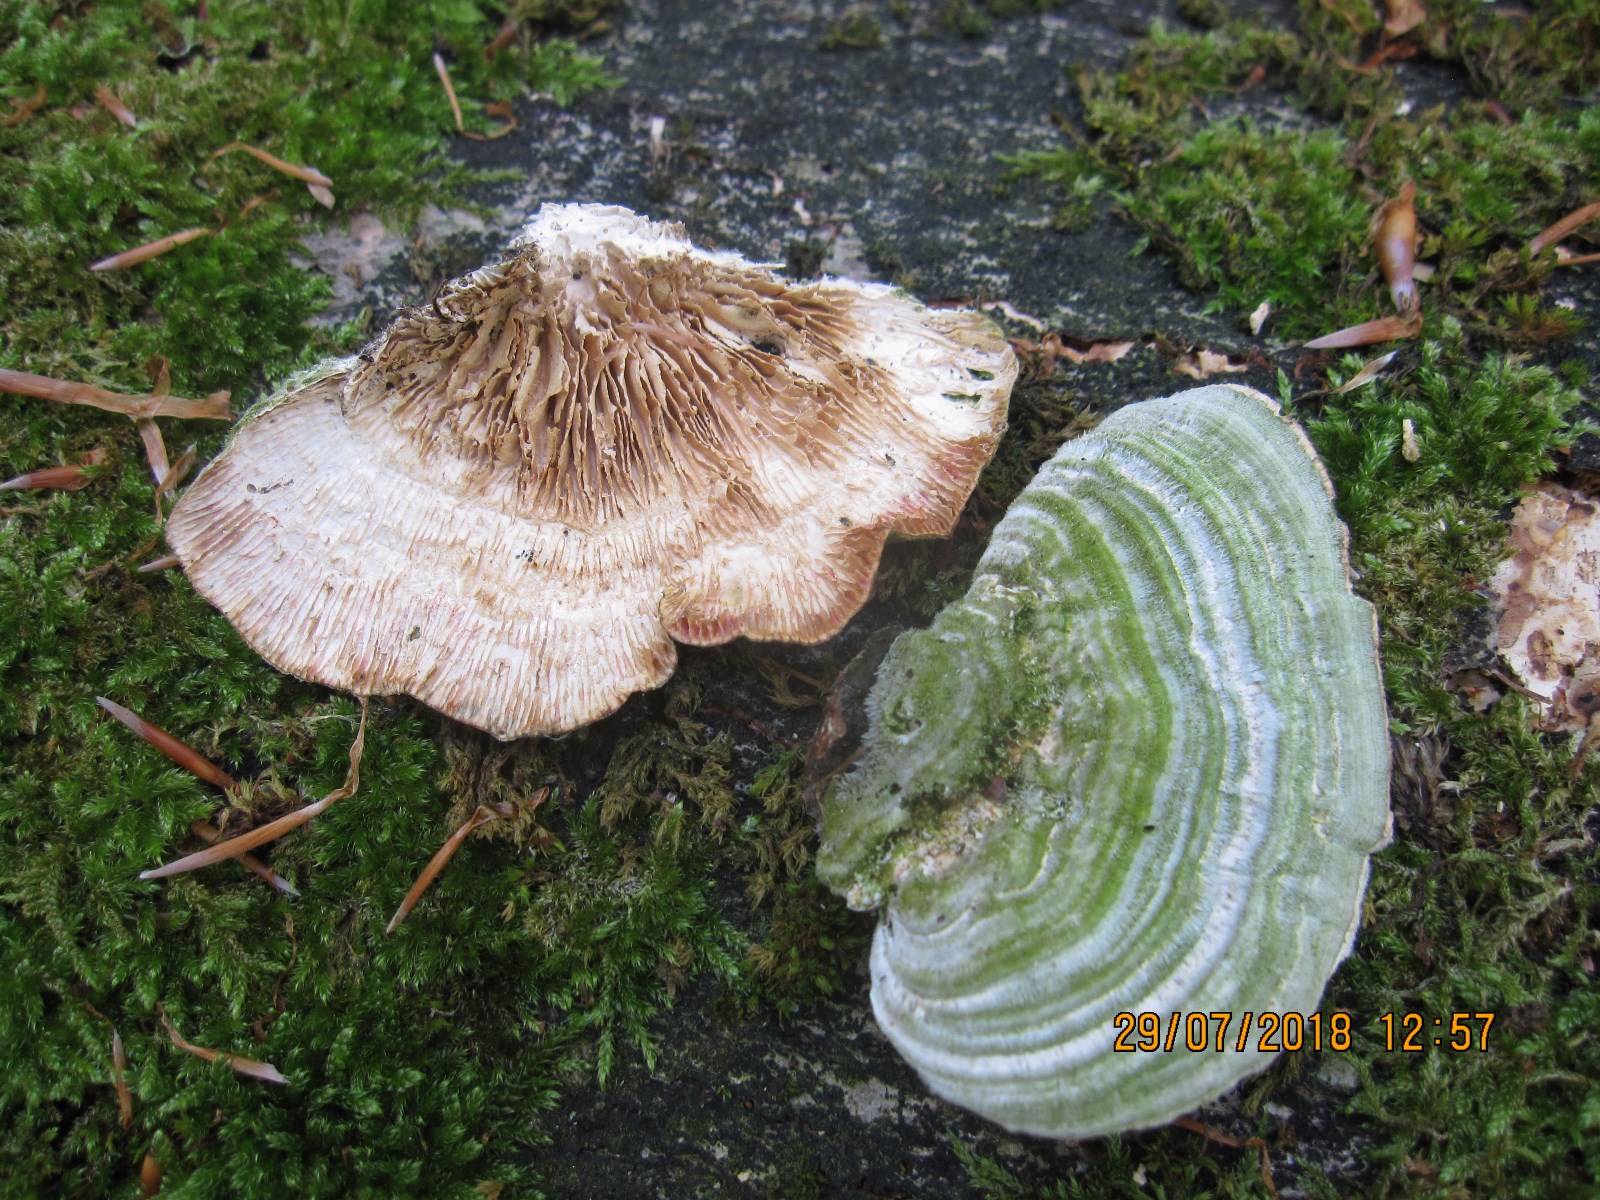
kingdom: Fungi
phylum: Basidiomycota
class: Agaricomycetes
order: Polyporales
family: Polyporaceae
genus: Lenzites
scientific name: Lenzites betulinus
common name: birke-læderporesvamp
